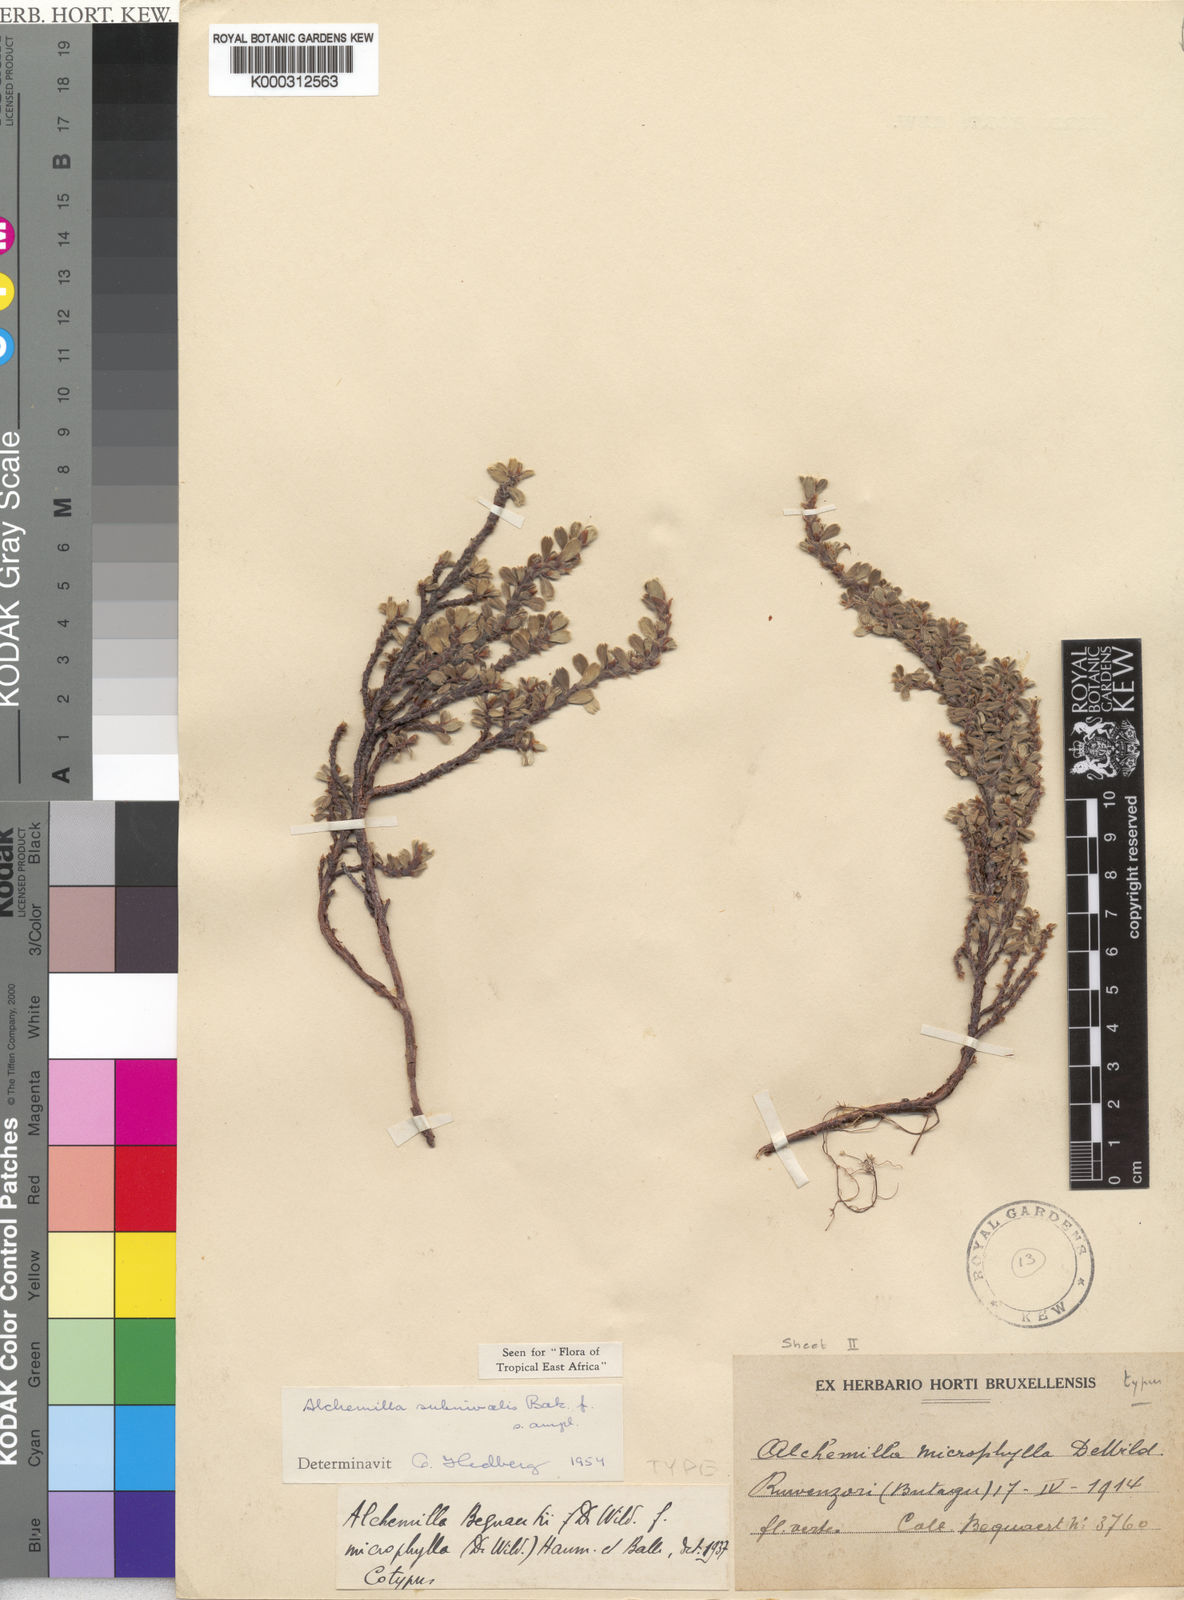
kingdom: Plantae
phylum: Tracheophyta
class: Magnoliopsida
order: Rosales
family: Rosaceae
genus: Alchemilla
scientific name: Alchemilla subnivalis
